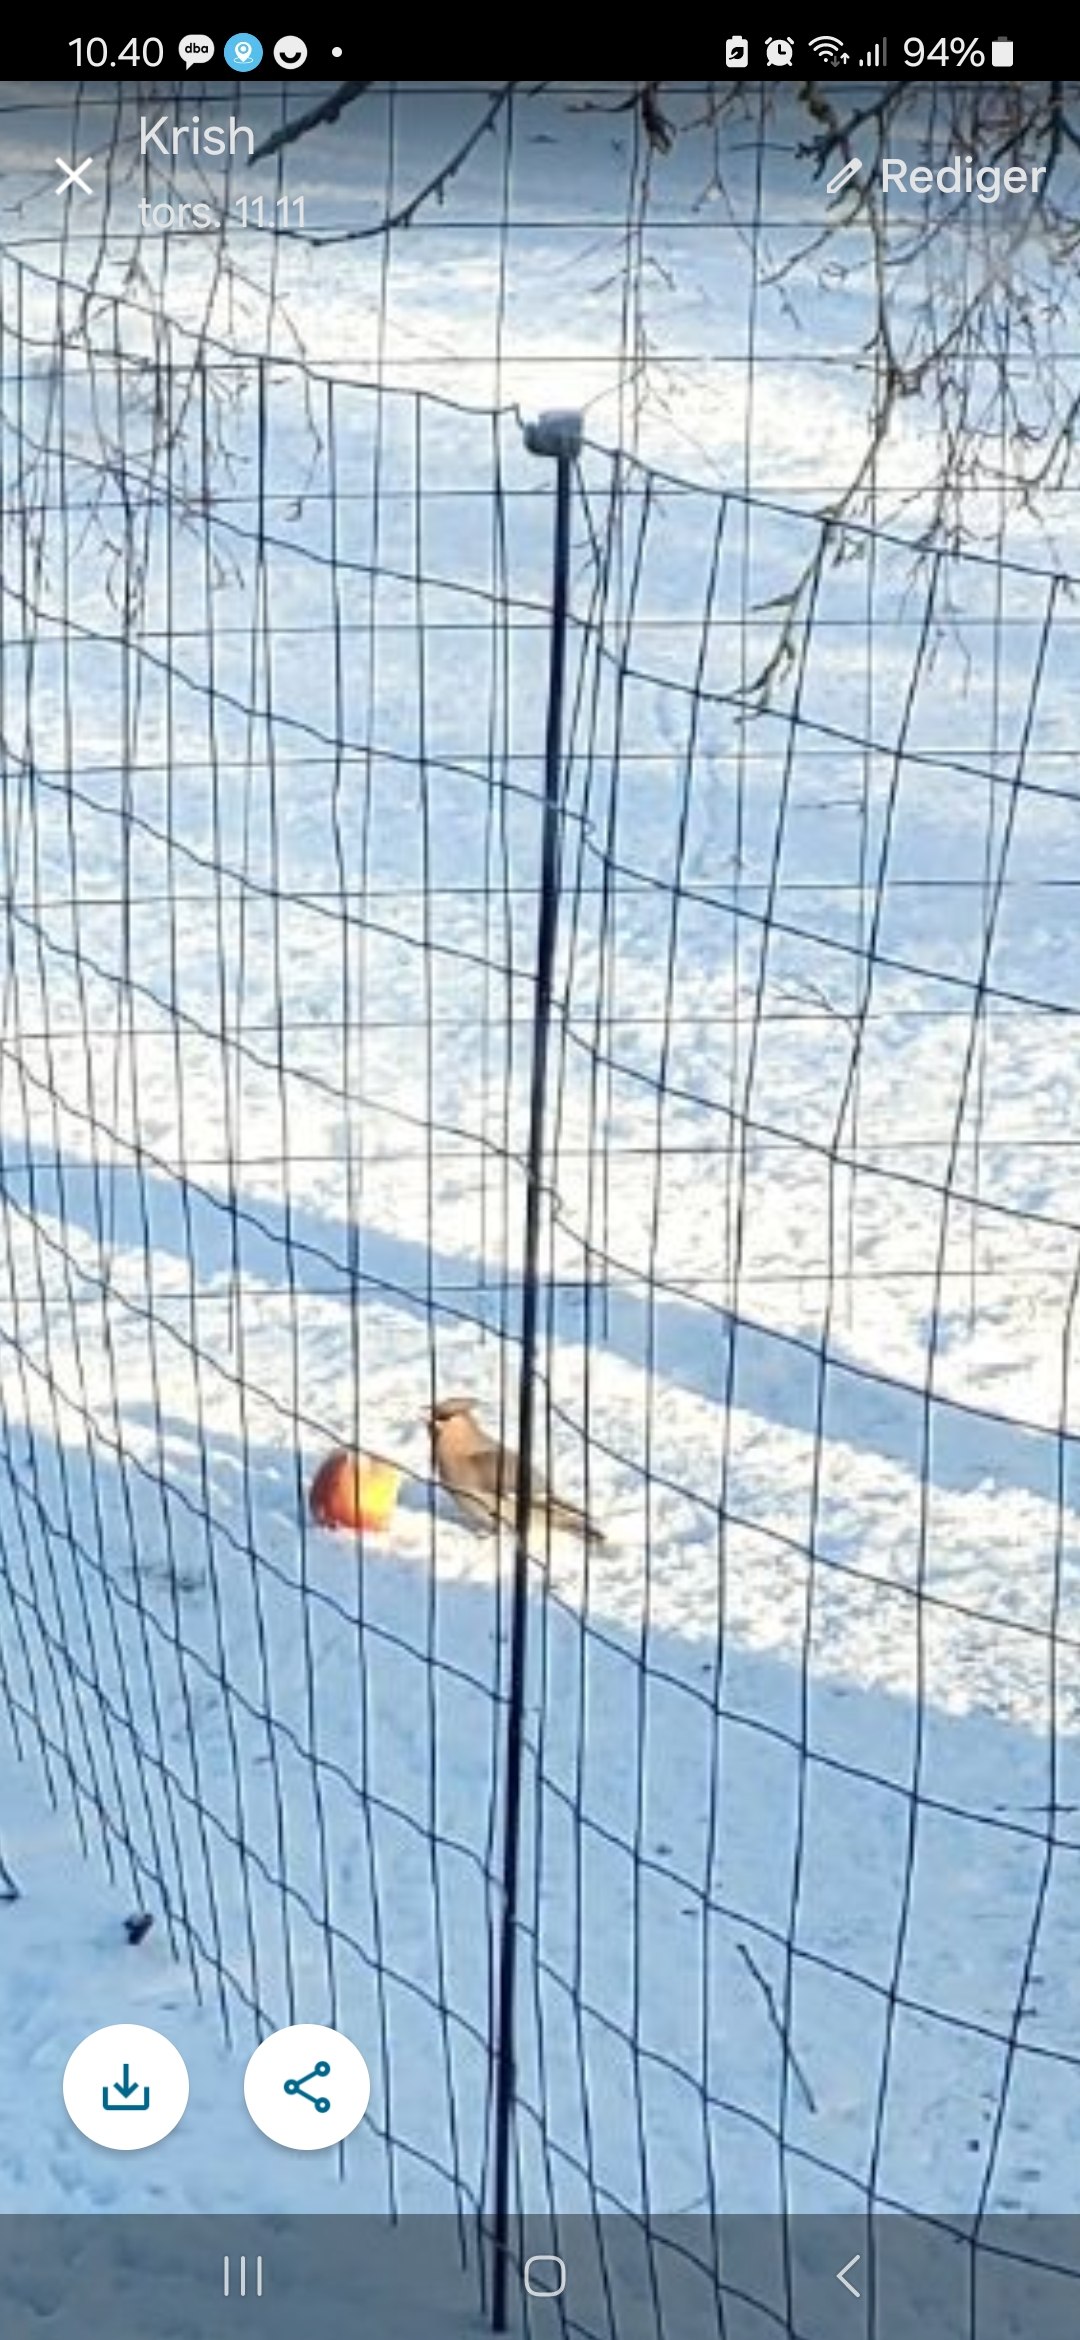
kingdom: Animalia
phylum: Chordata
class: Aves
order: Passeriformes
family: Bombycillidae
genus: Bombycilla
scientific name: Bombycilla garrulus
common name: Silkehale
